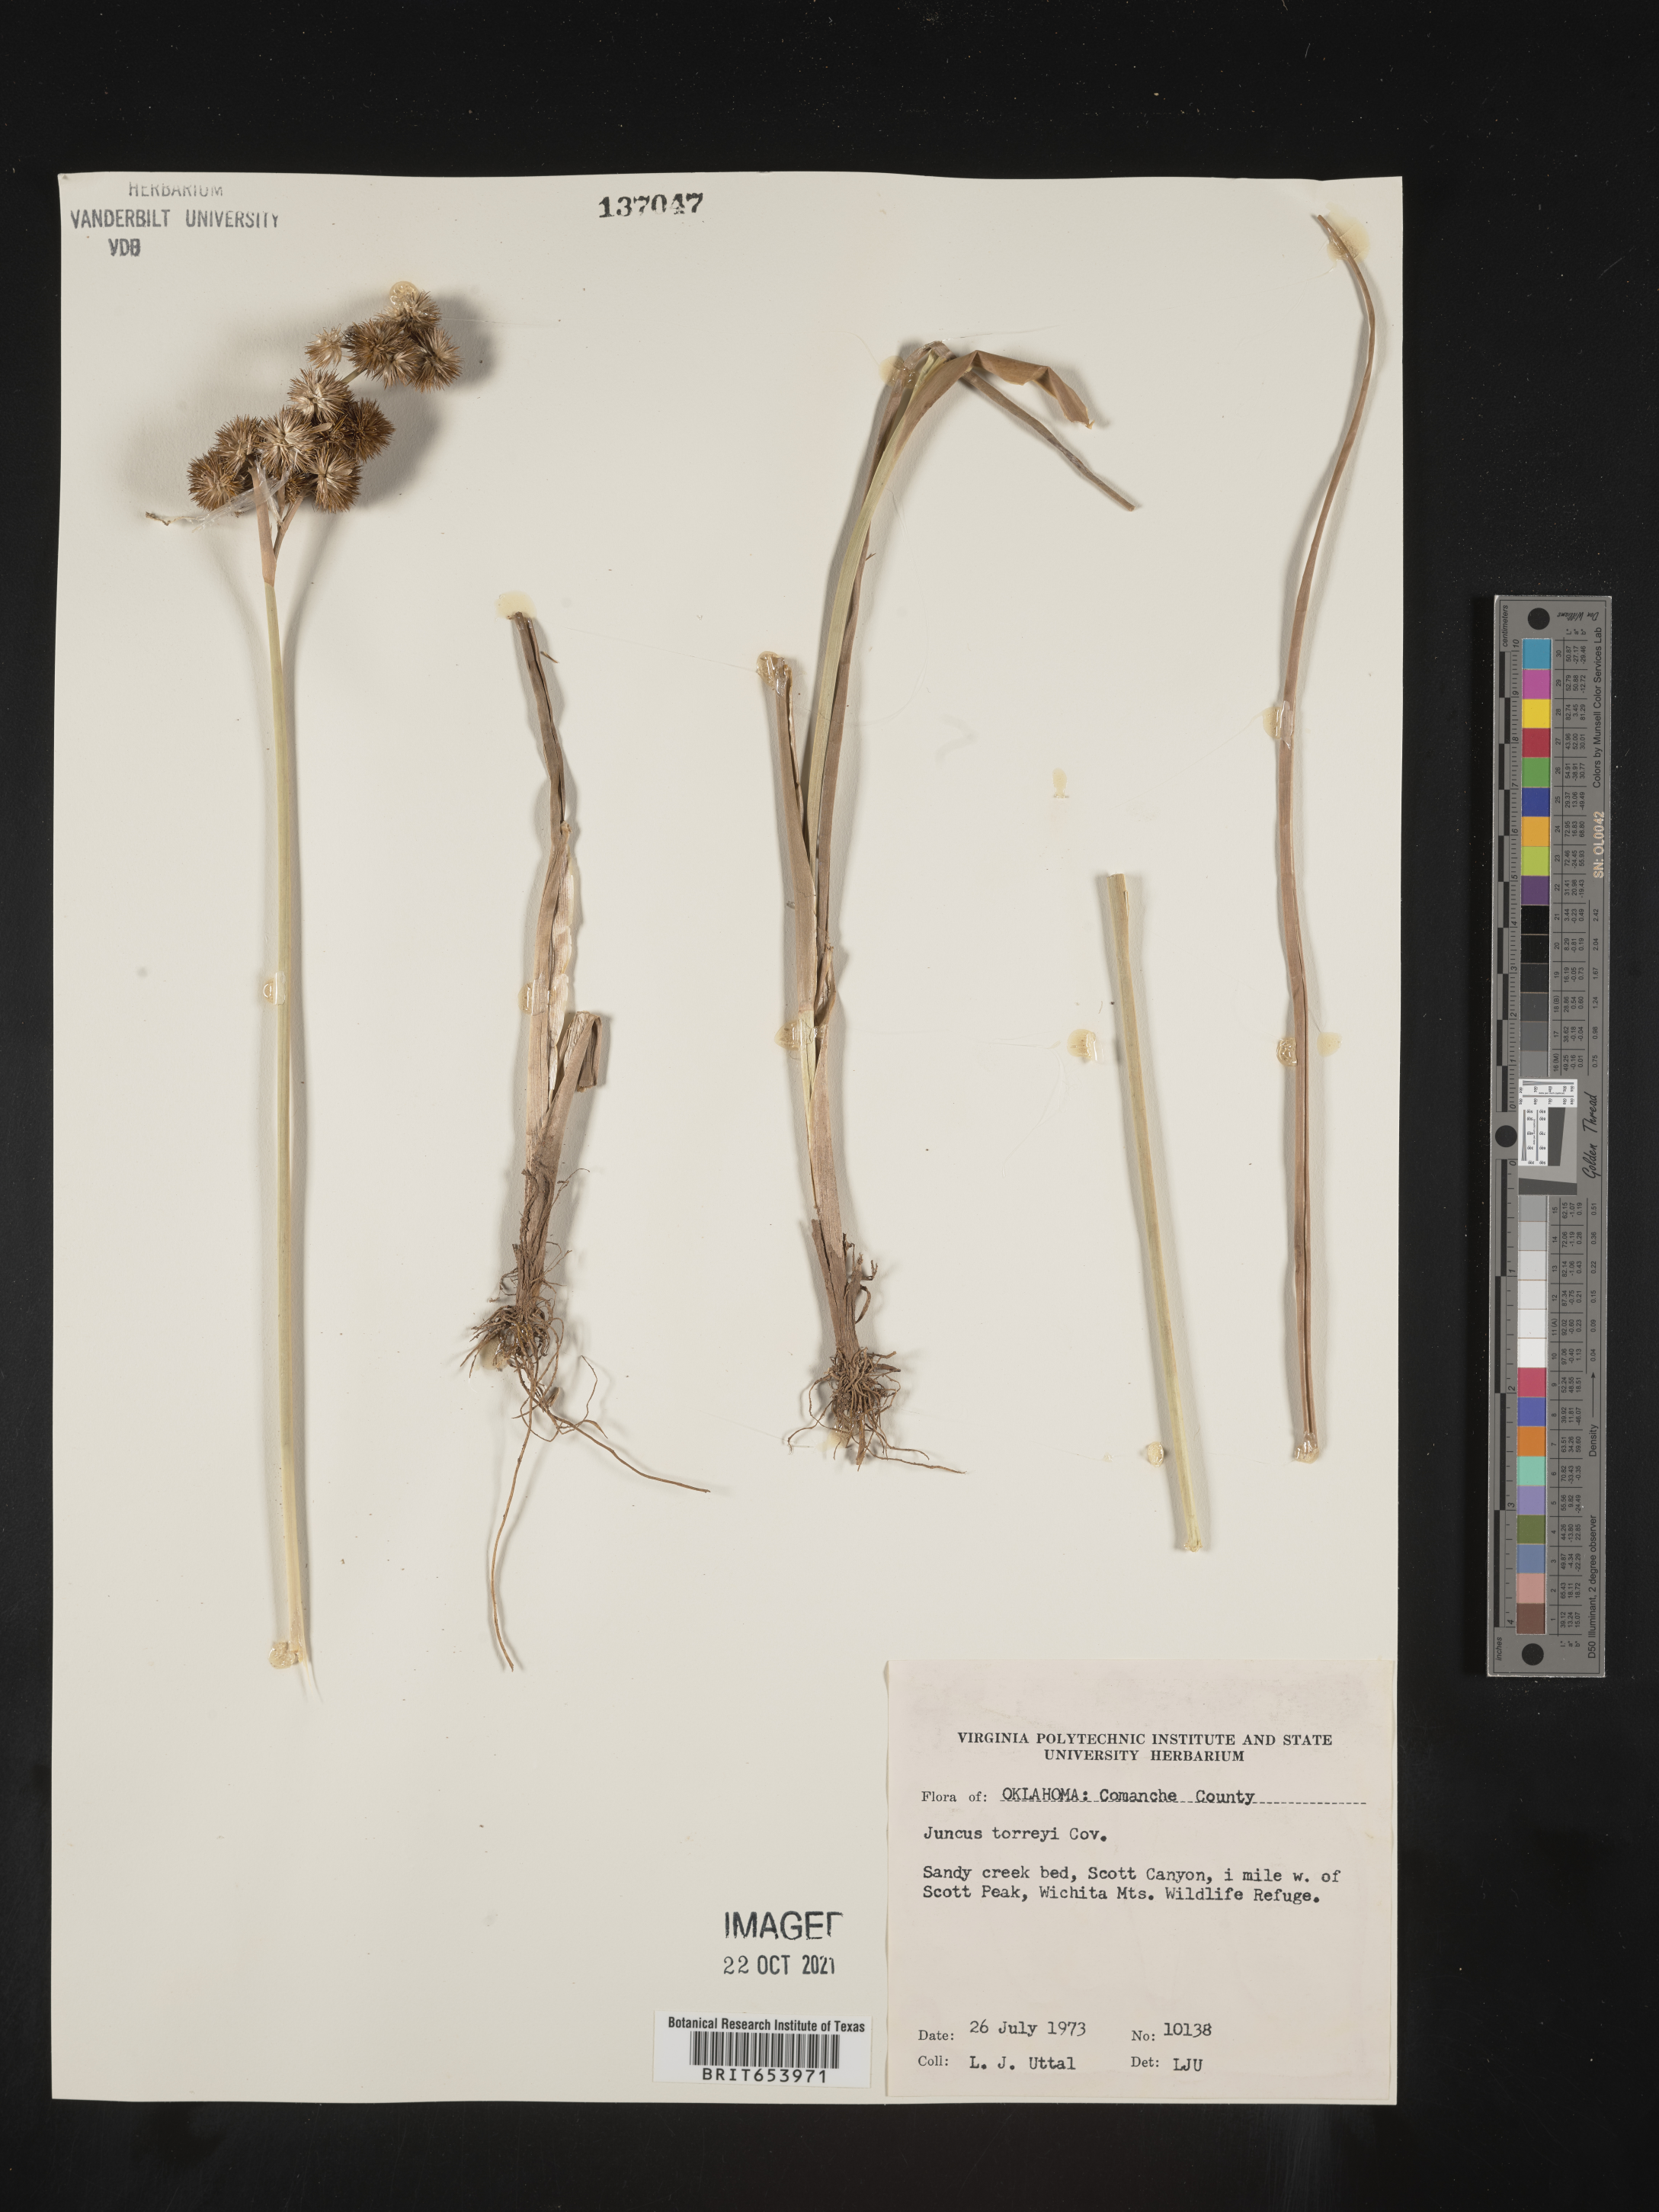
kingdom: Plantae
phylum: Tracheophyta
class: Liliopsida
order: Poales
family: Juncaceae
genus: Juncus
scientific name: Juncus torreyi
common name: Torrey's rush
